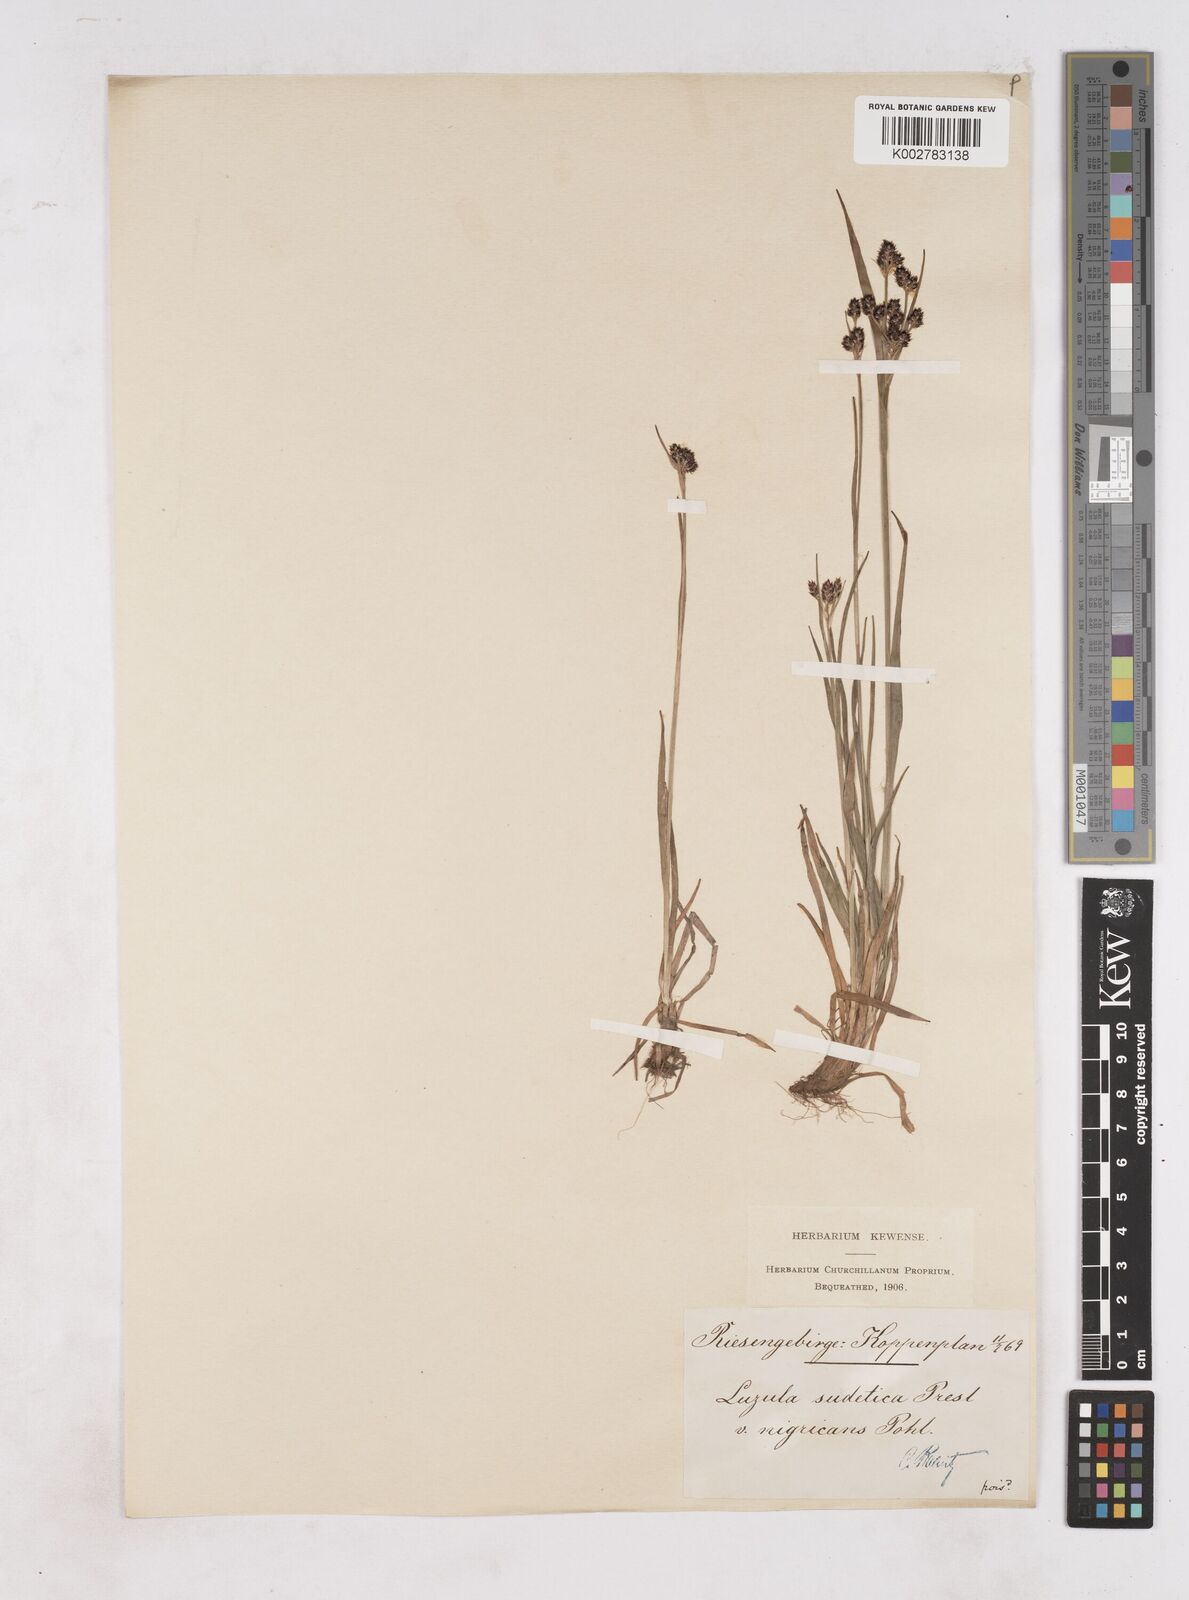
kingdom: Plantae
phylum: Tracheophyta
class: Liliopsida
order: Poales
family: Juncaceae
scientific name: Juncaceae
